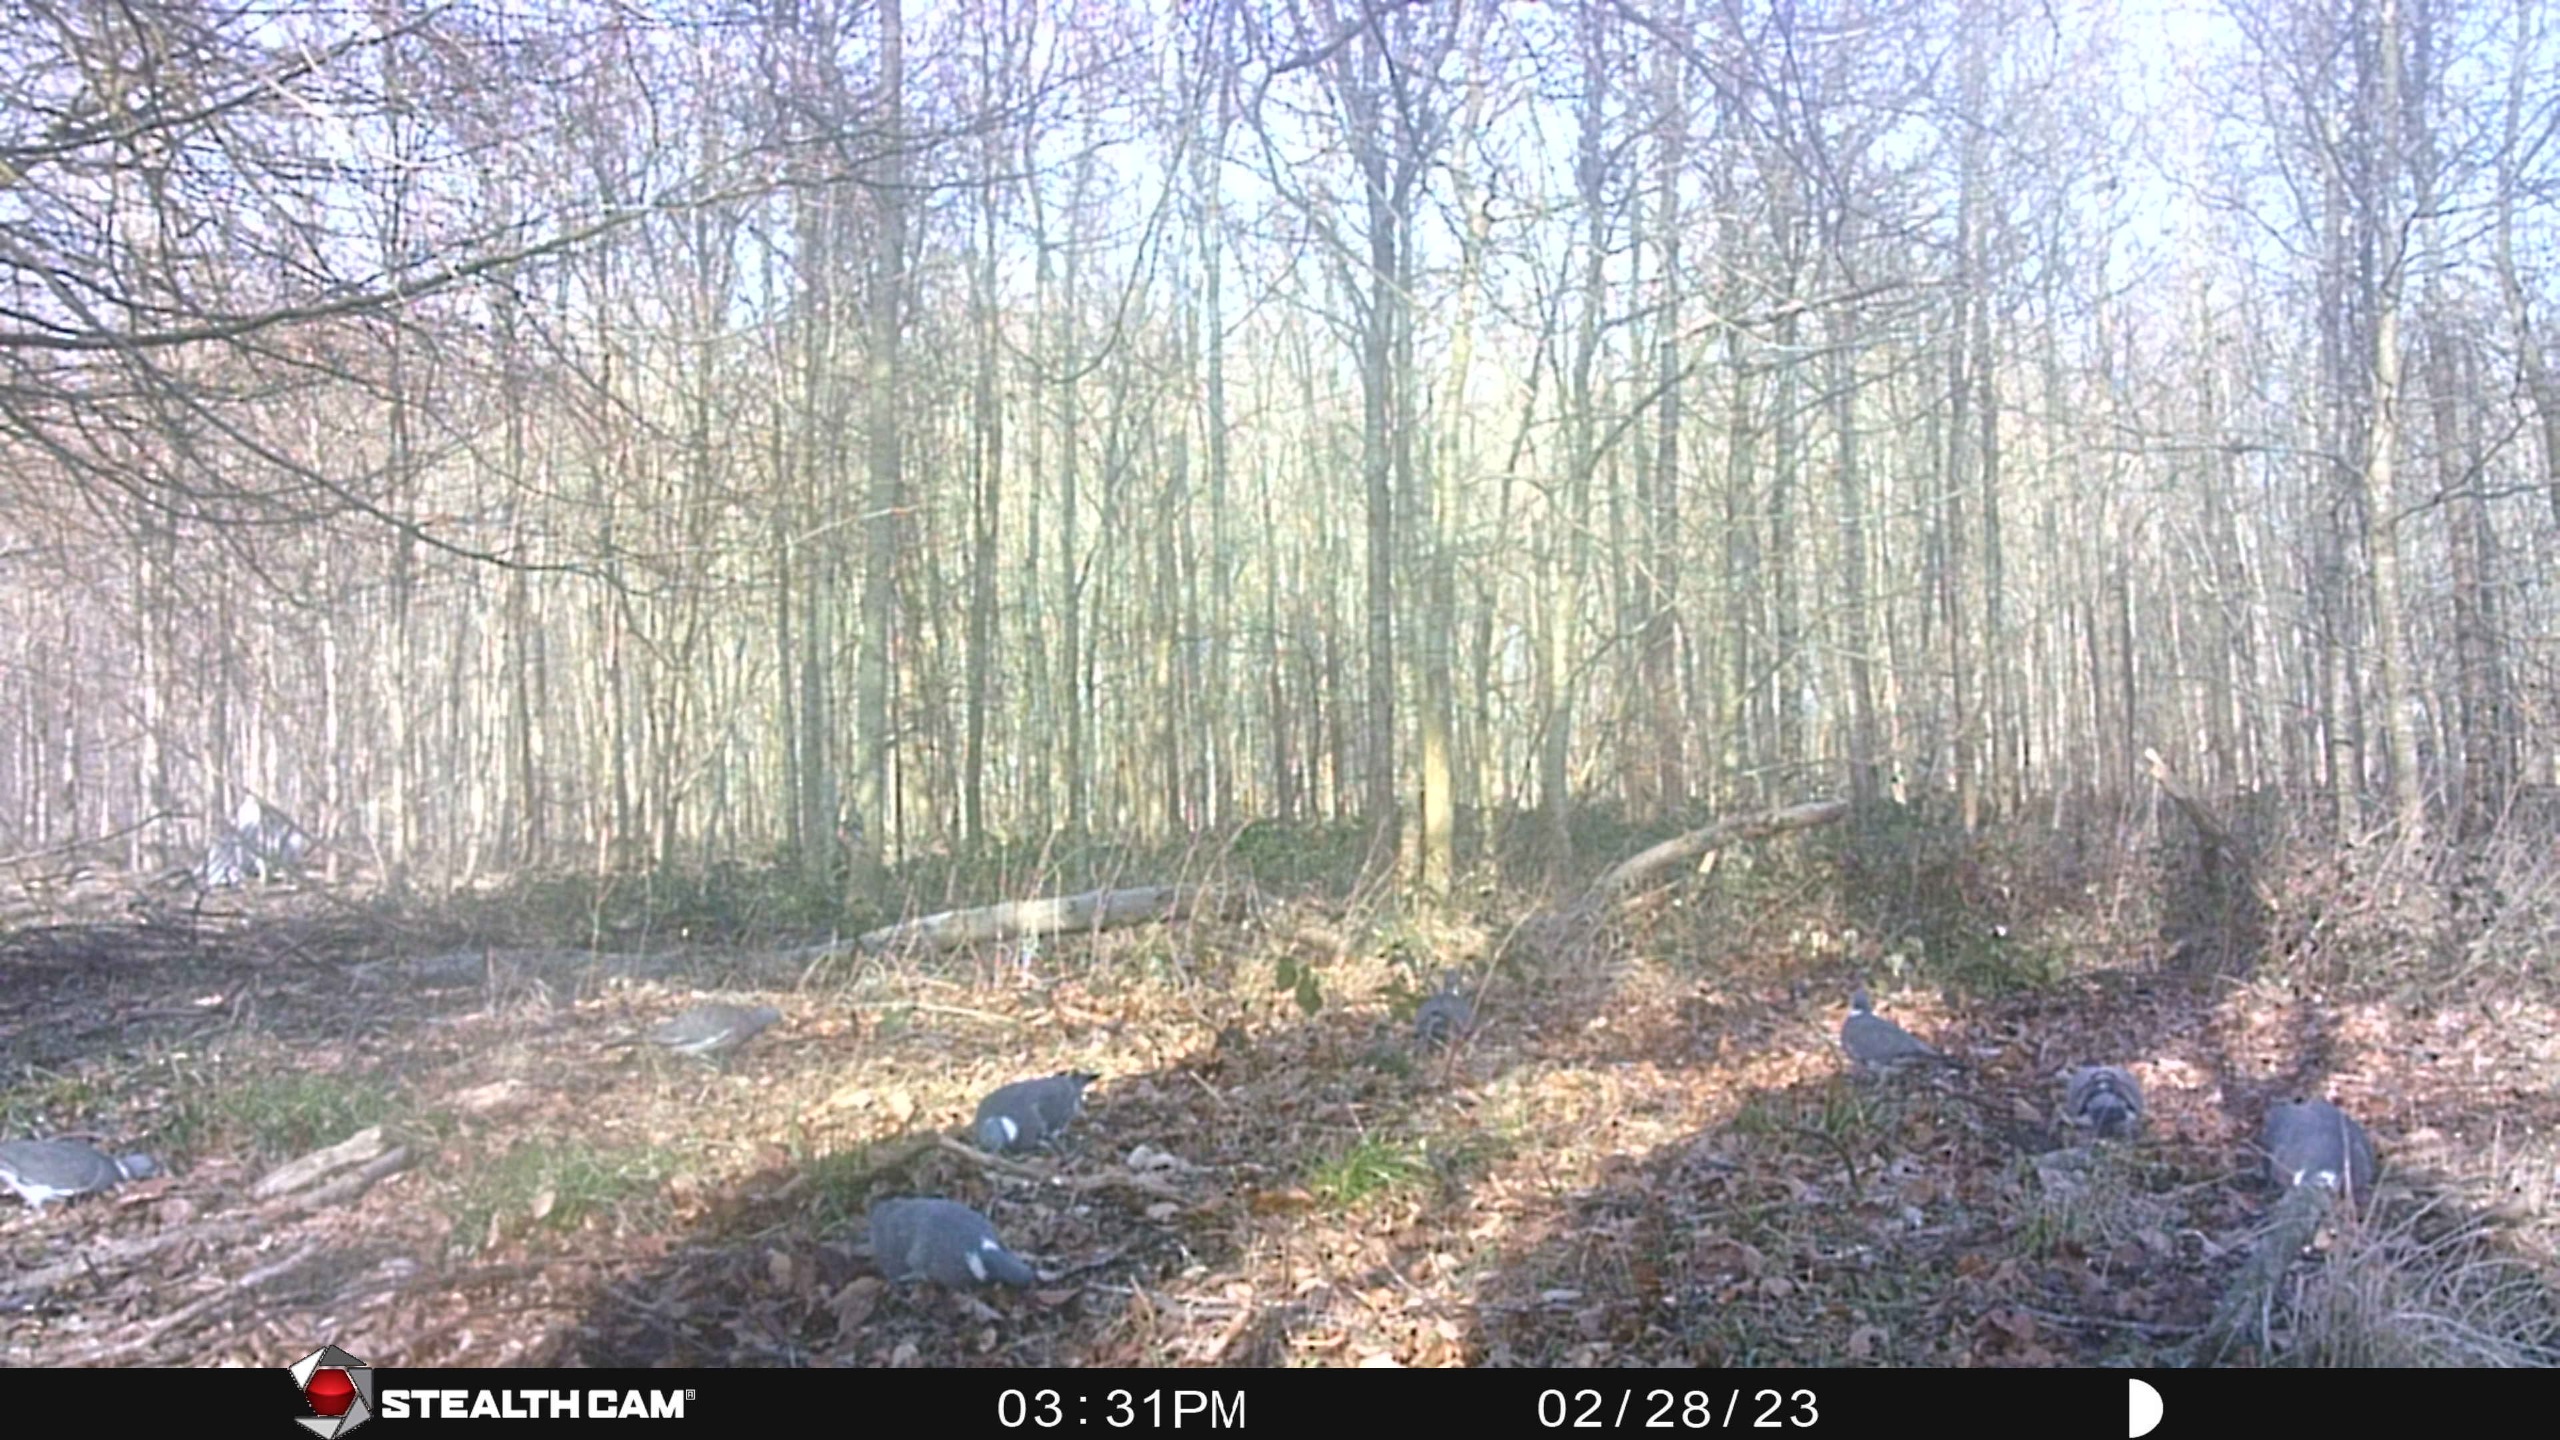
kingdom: Animalia
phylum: Chordata
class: Aves
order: Columbiformes
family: Columbidae
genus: Columba
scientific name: Columba palumbus
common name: Ringdue
